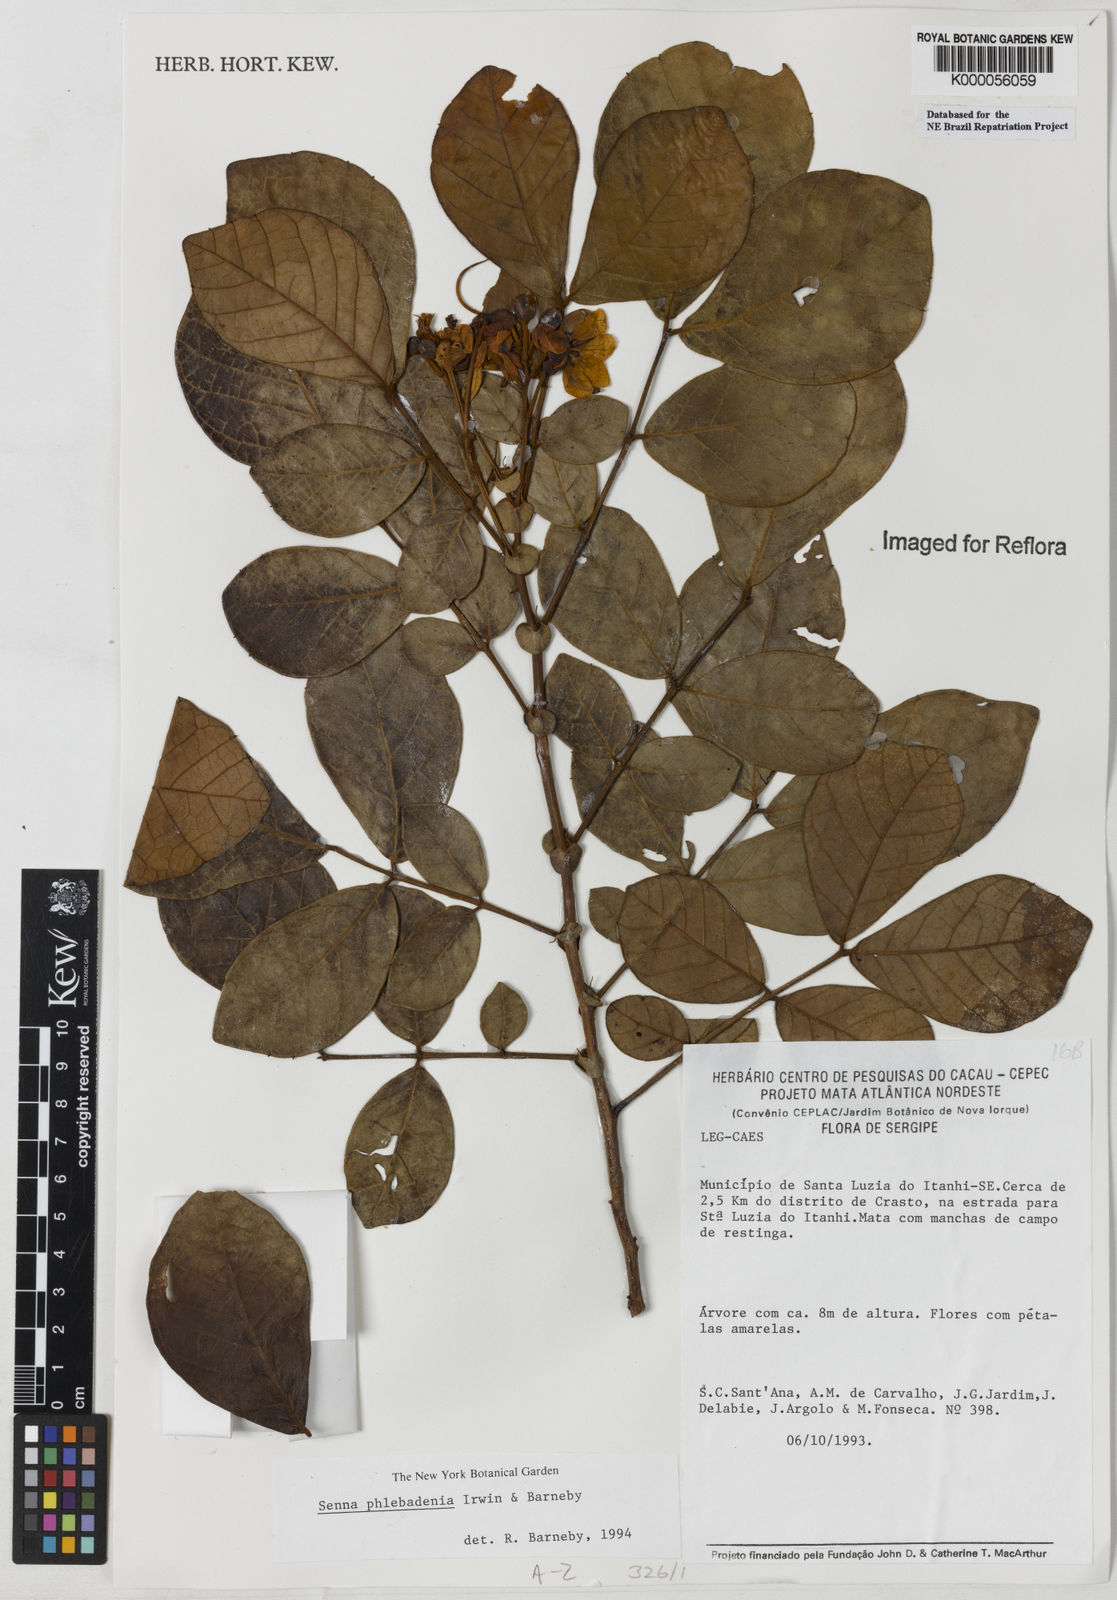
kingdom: Plantae
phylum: Tracheophyta
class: Magnoliopsida
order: Fabales
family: Fabaceae
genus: Senna
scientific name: Senna phlebadenia
